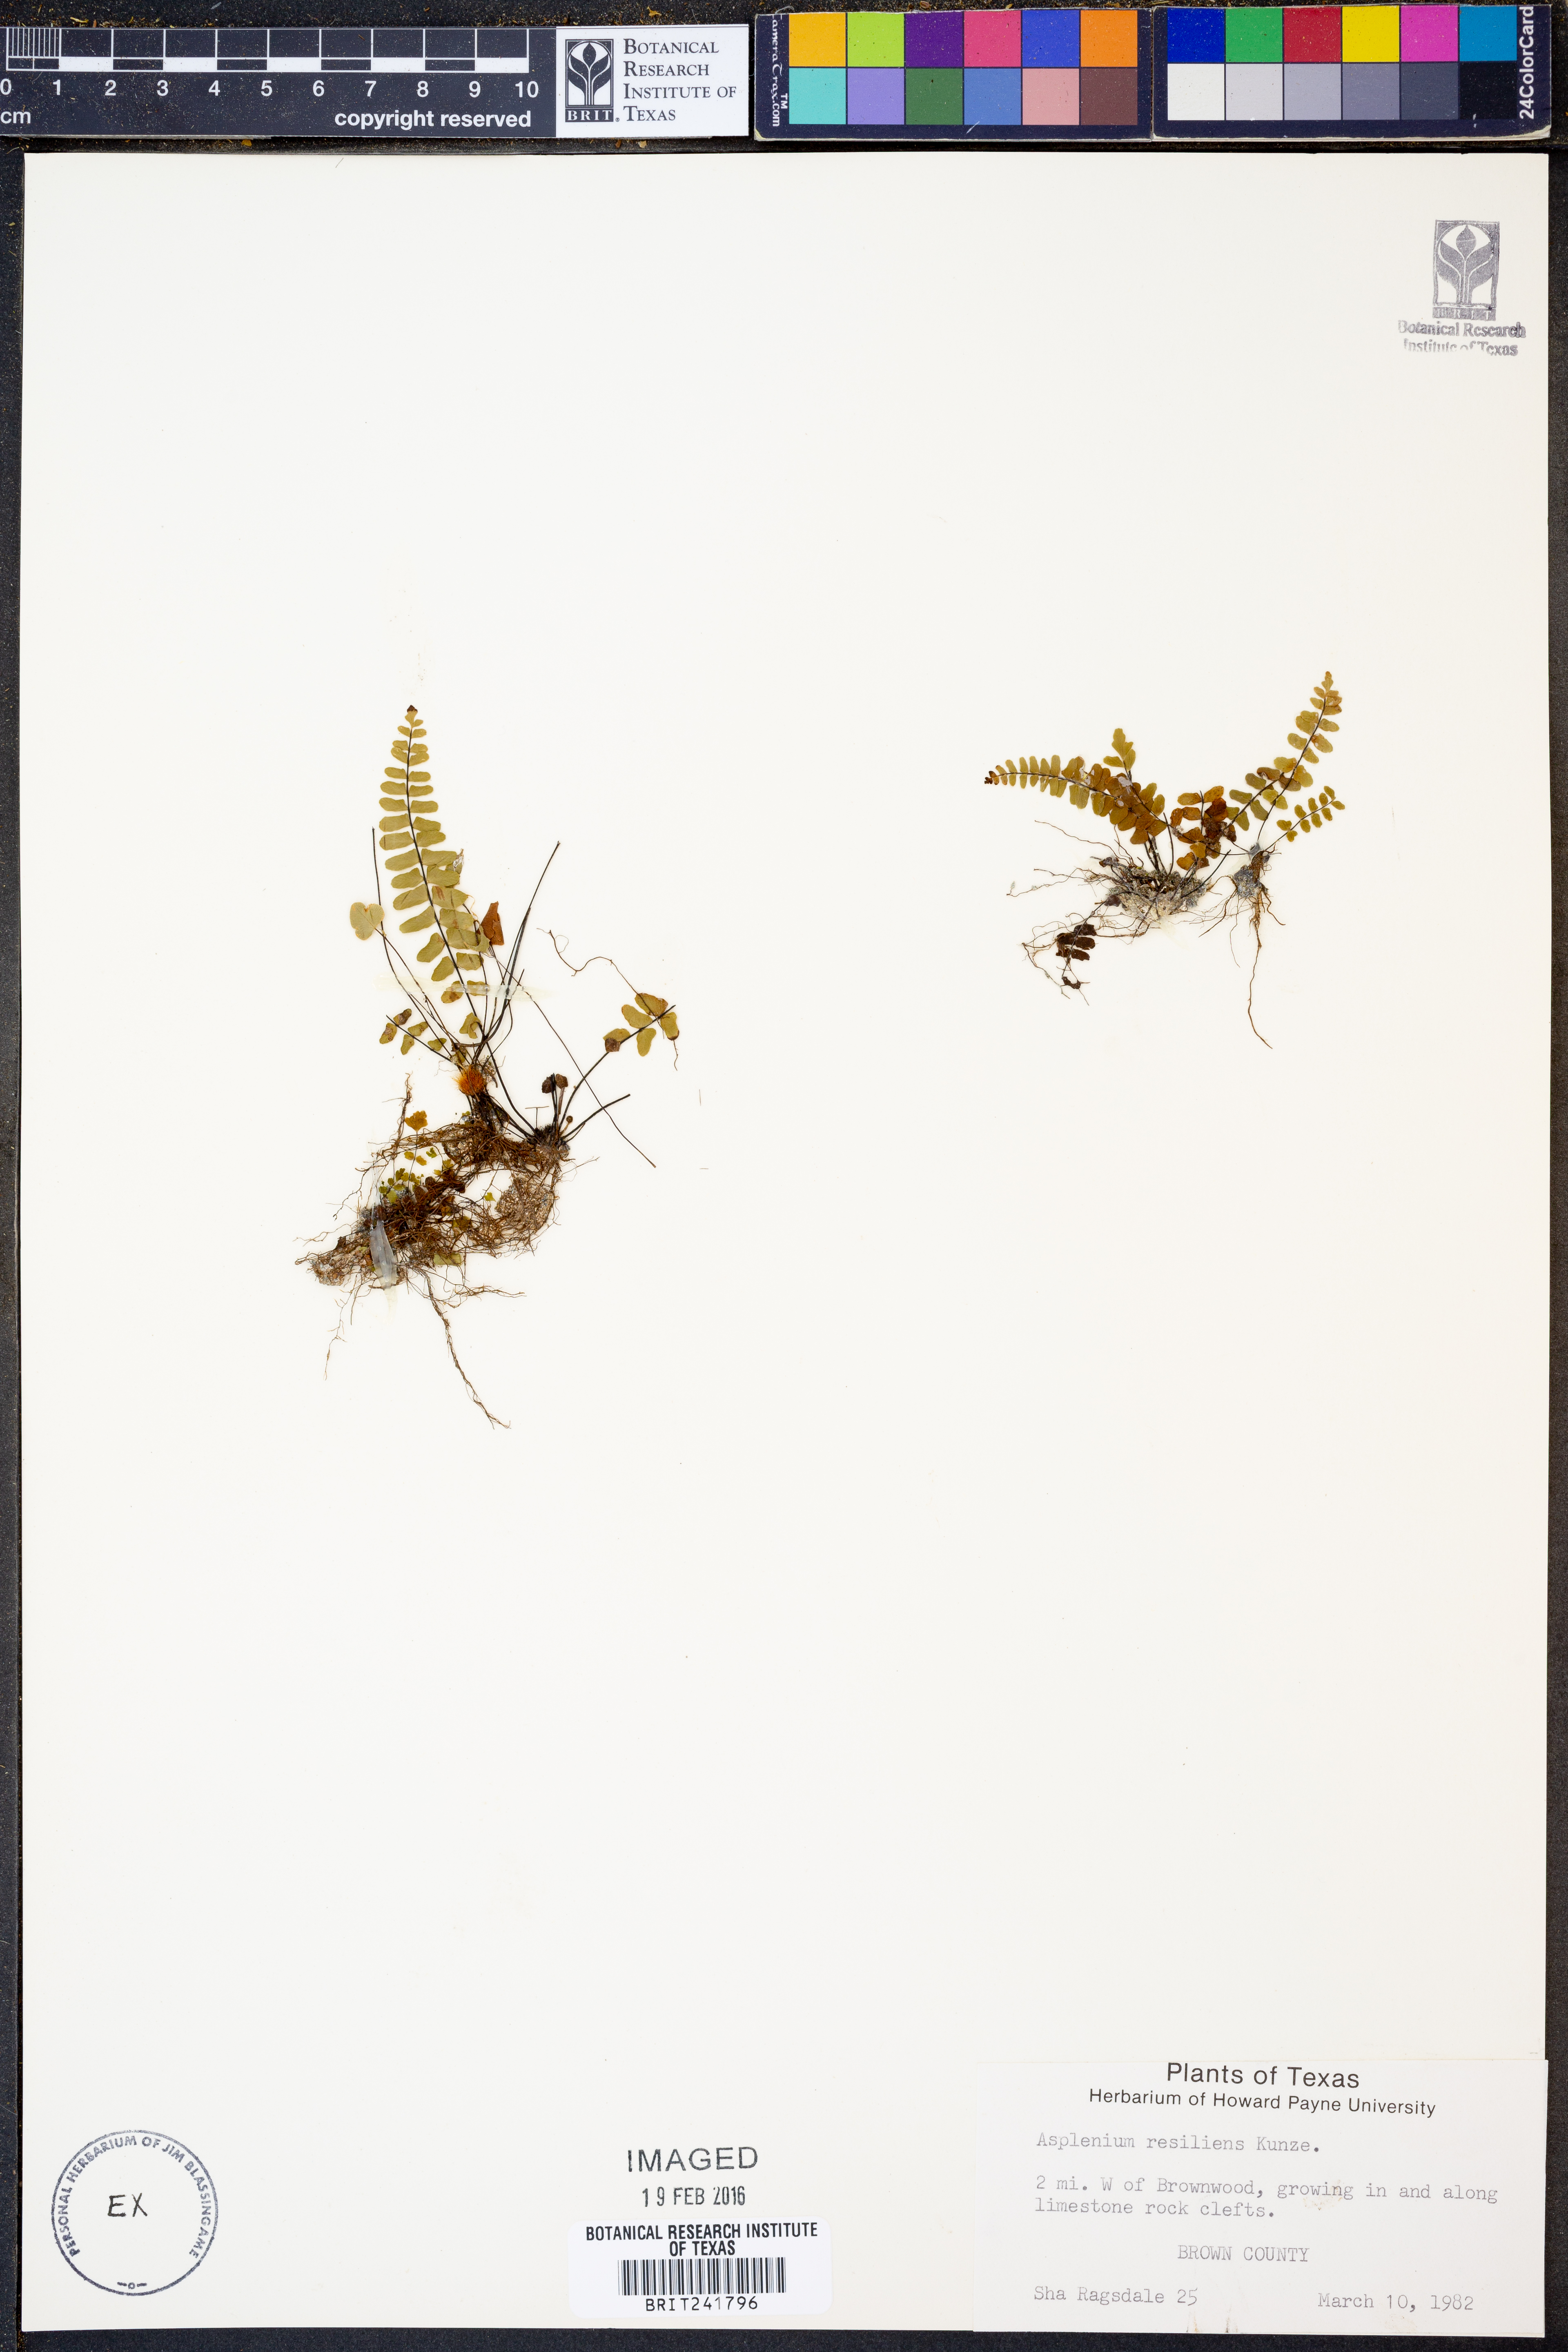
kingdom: Plantae
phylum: Tracheophyta
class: Polypodiopsida
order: Polypodiales
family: Aspleniaceae
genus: Asplenium
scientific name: Asplenium resiliens
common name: Blackstem spleenwort
